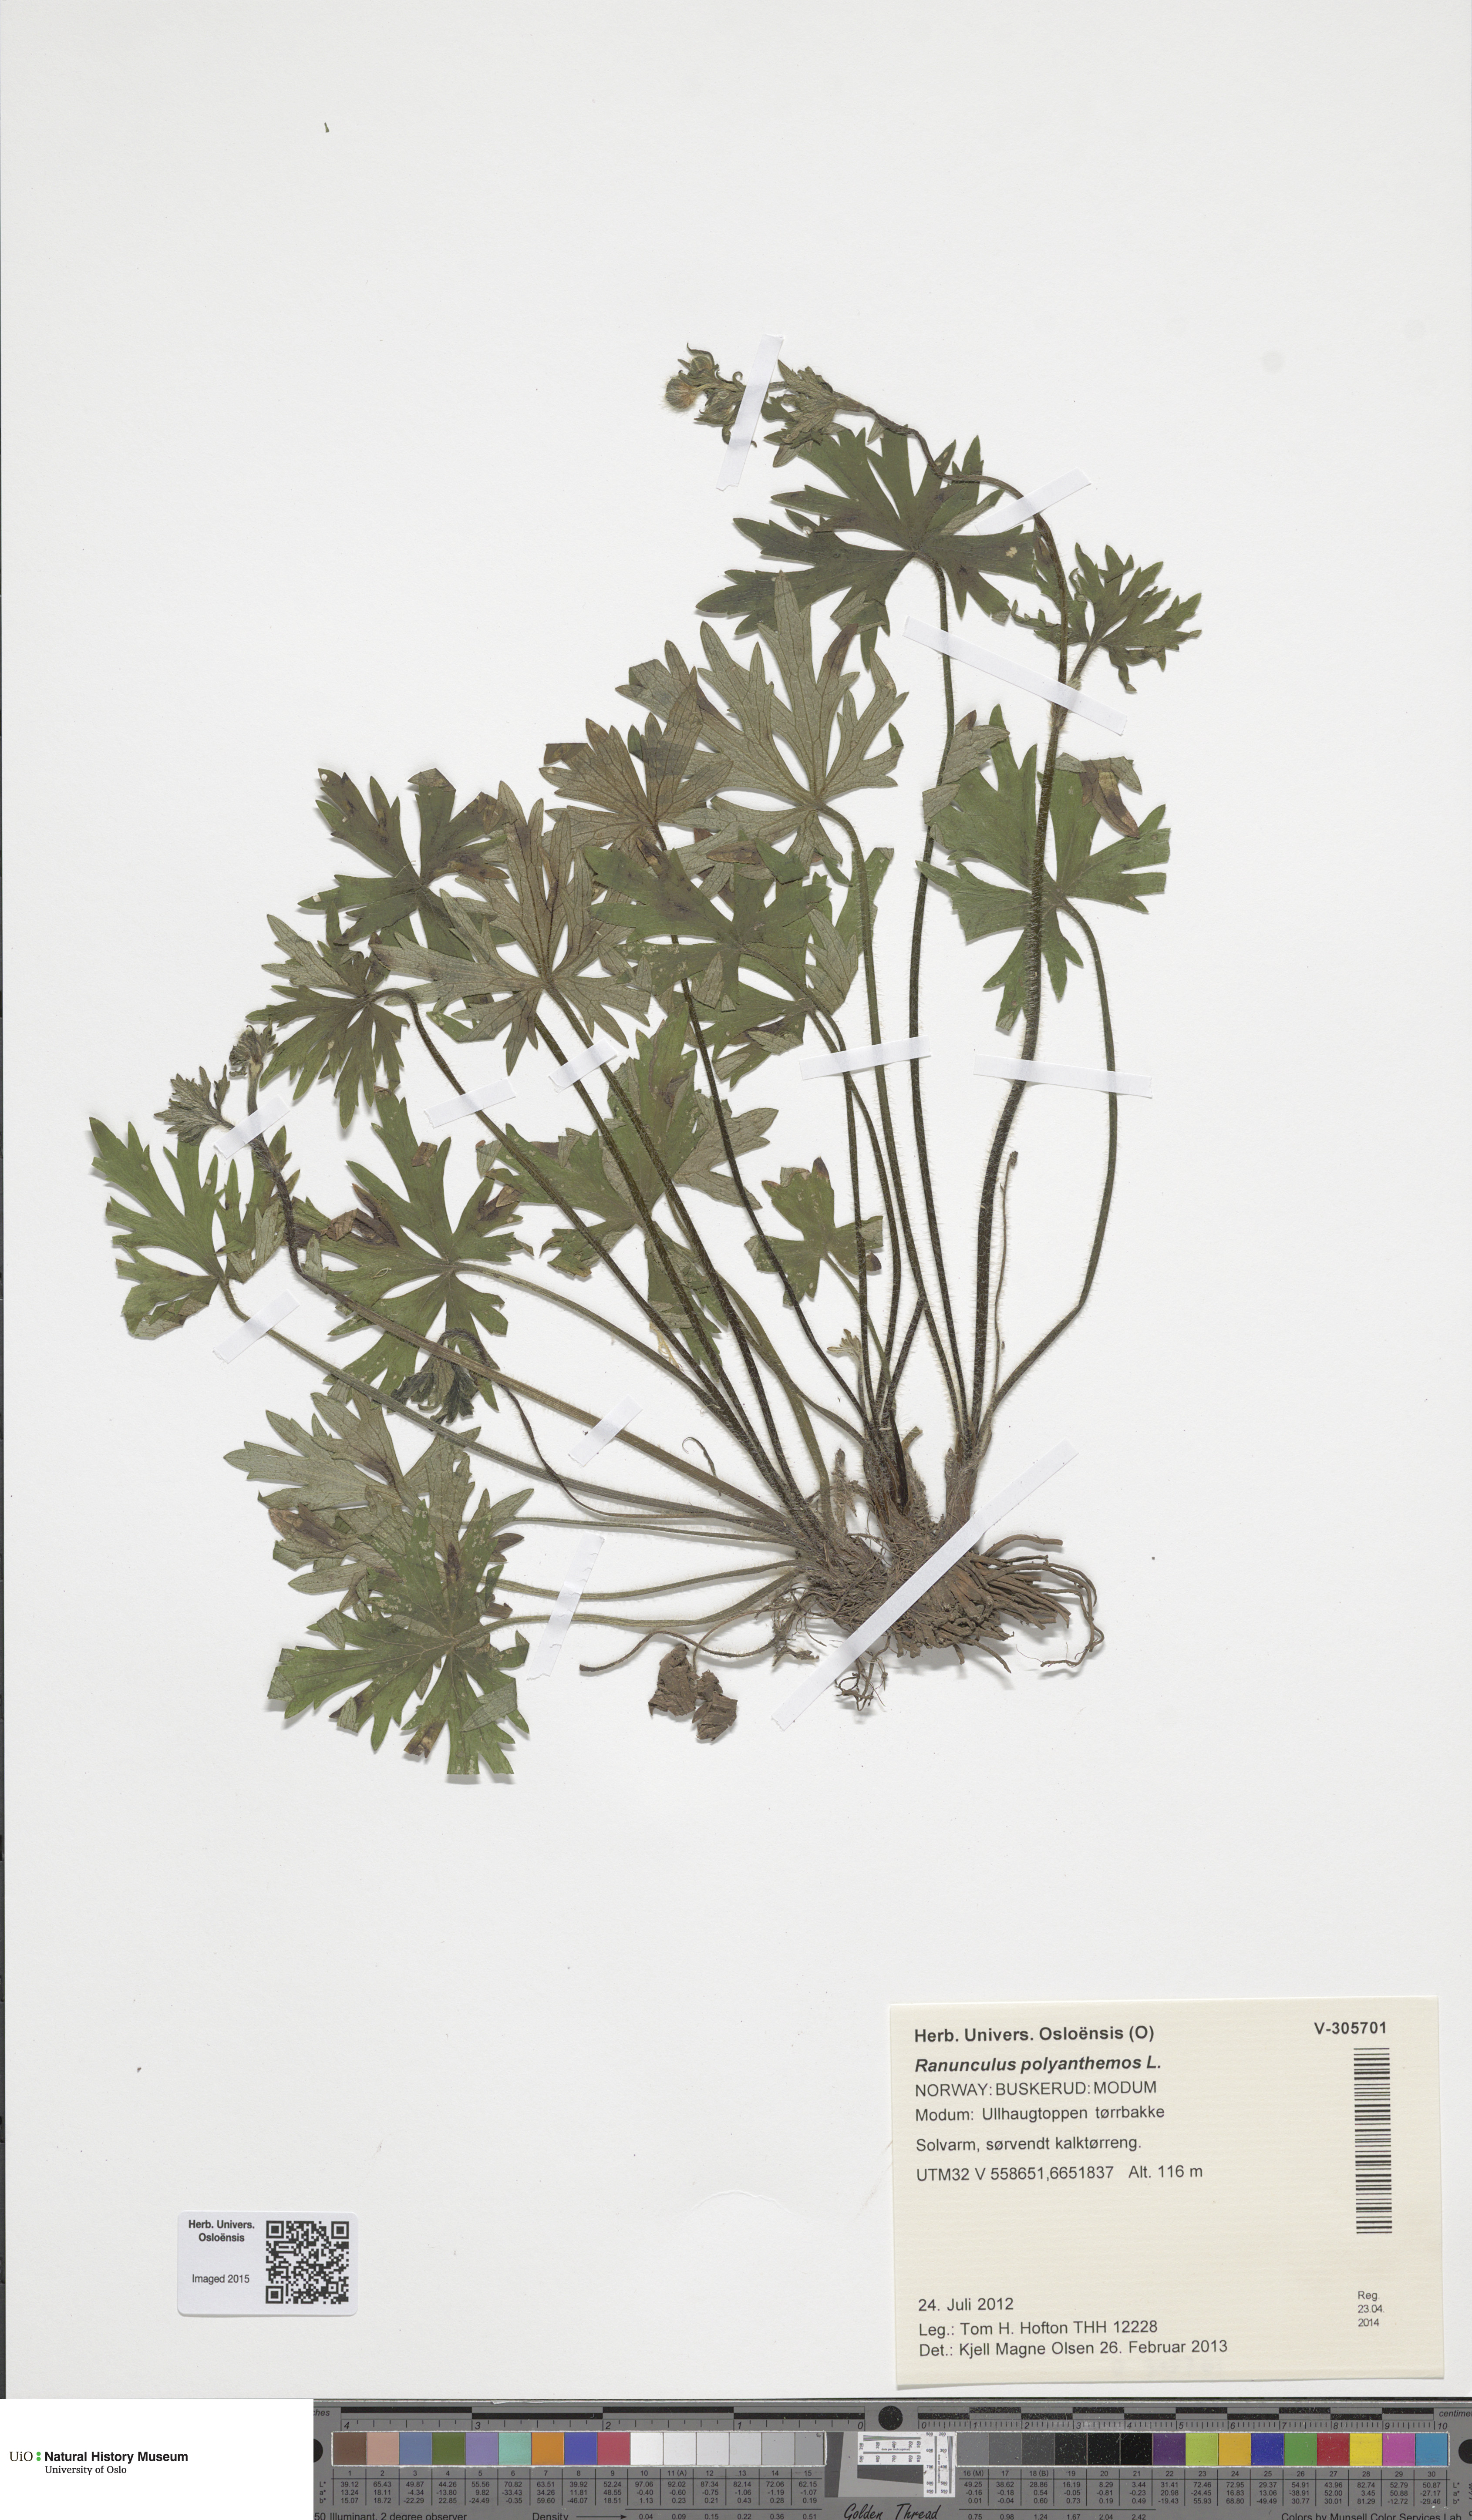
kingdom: Plantae
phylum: Tracheophyta
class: Magnoliopsida
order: Ranunculales
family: Ranunculaceae
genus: Ranunculus
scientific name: Ranunculus polyanthemos
